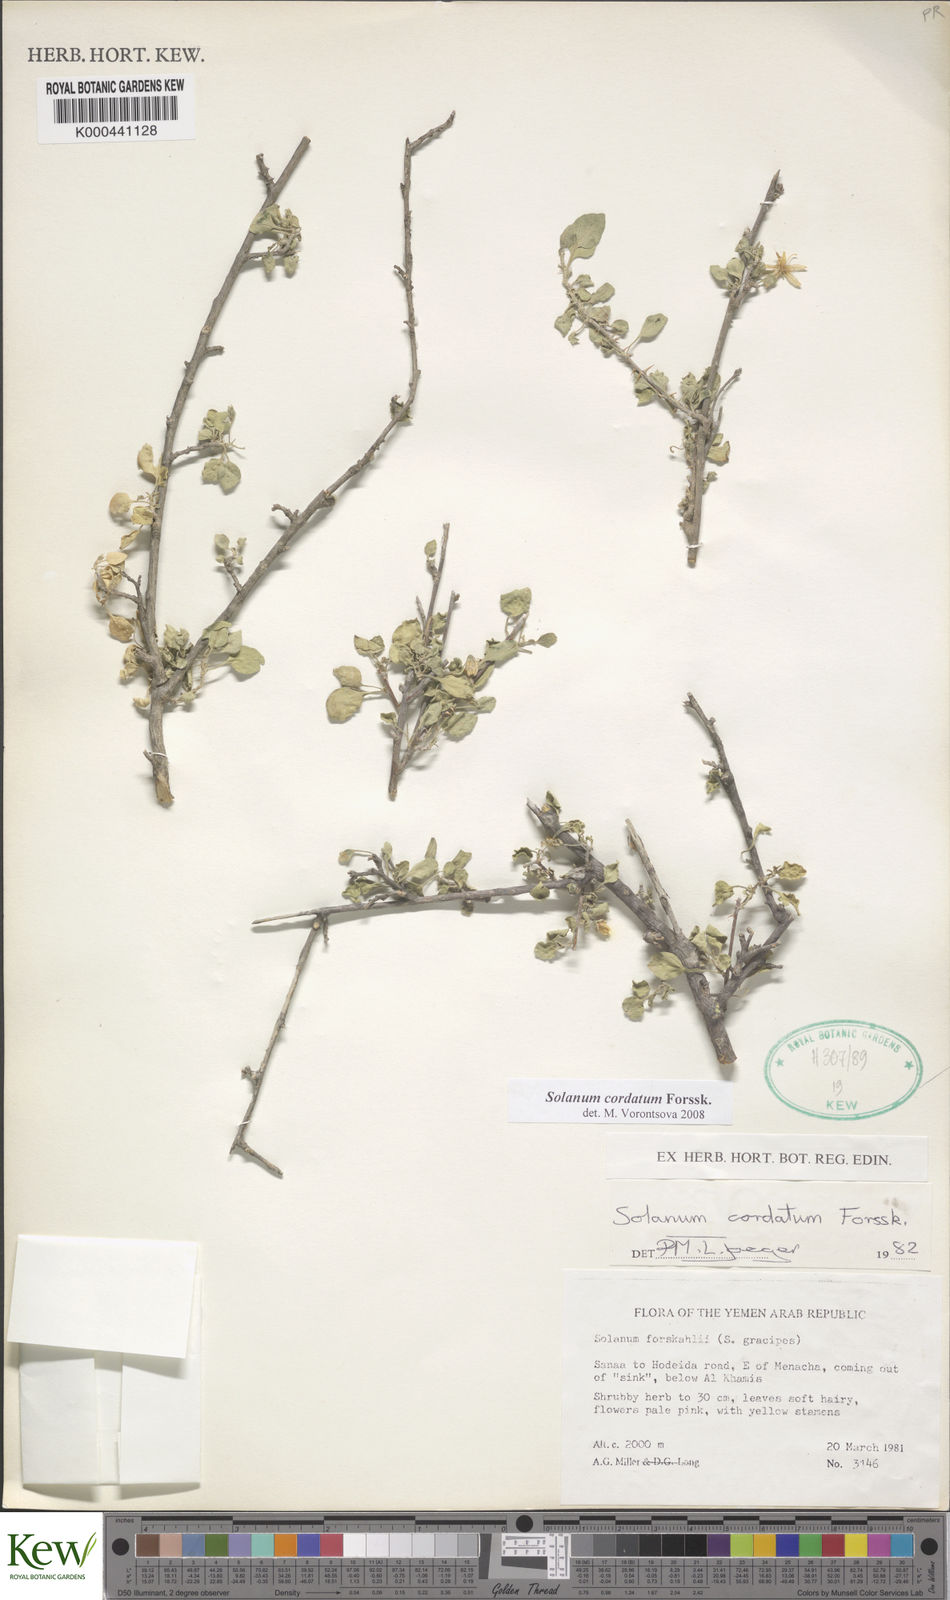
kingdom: Plantae
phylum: Tracheophyta
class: Magnoliopsida
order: Solanales
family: Solanaceae
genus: Solanum
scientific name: Solanum cordatum
